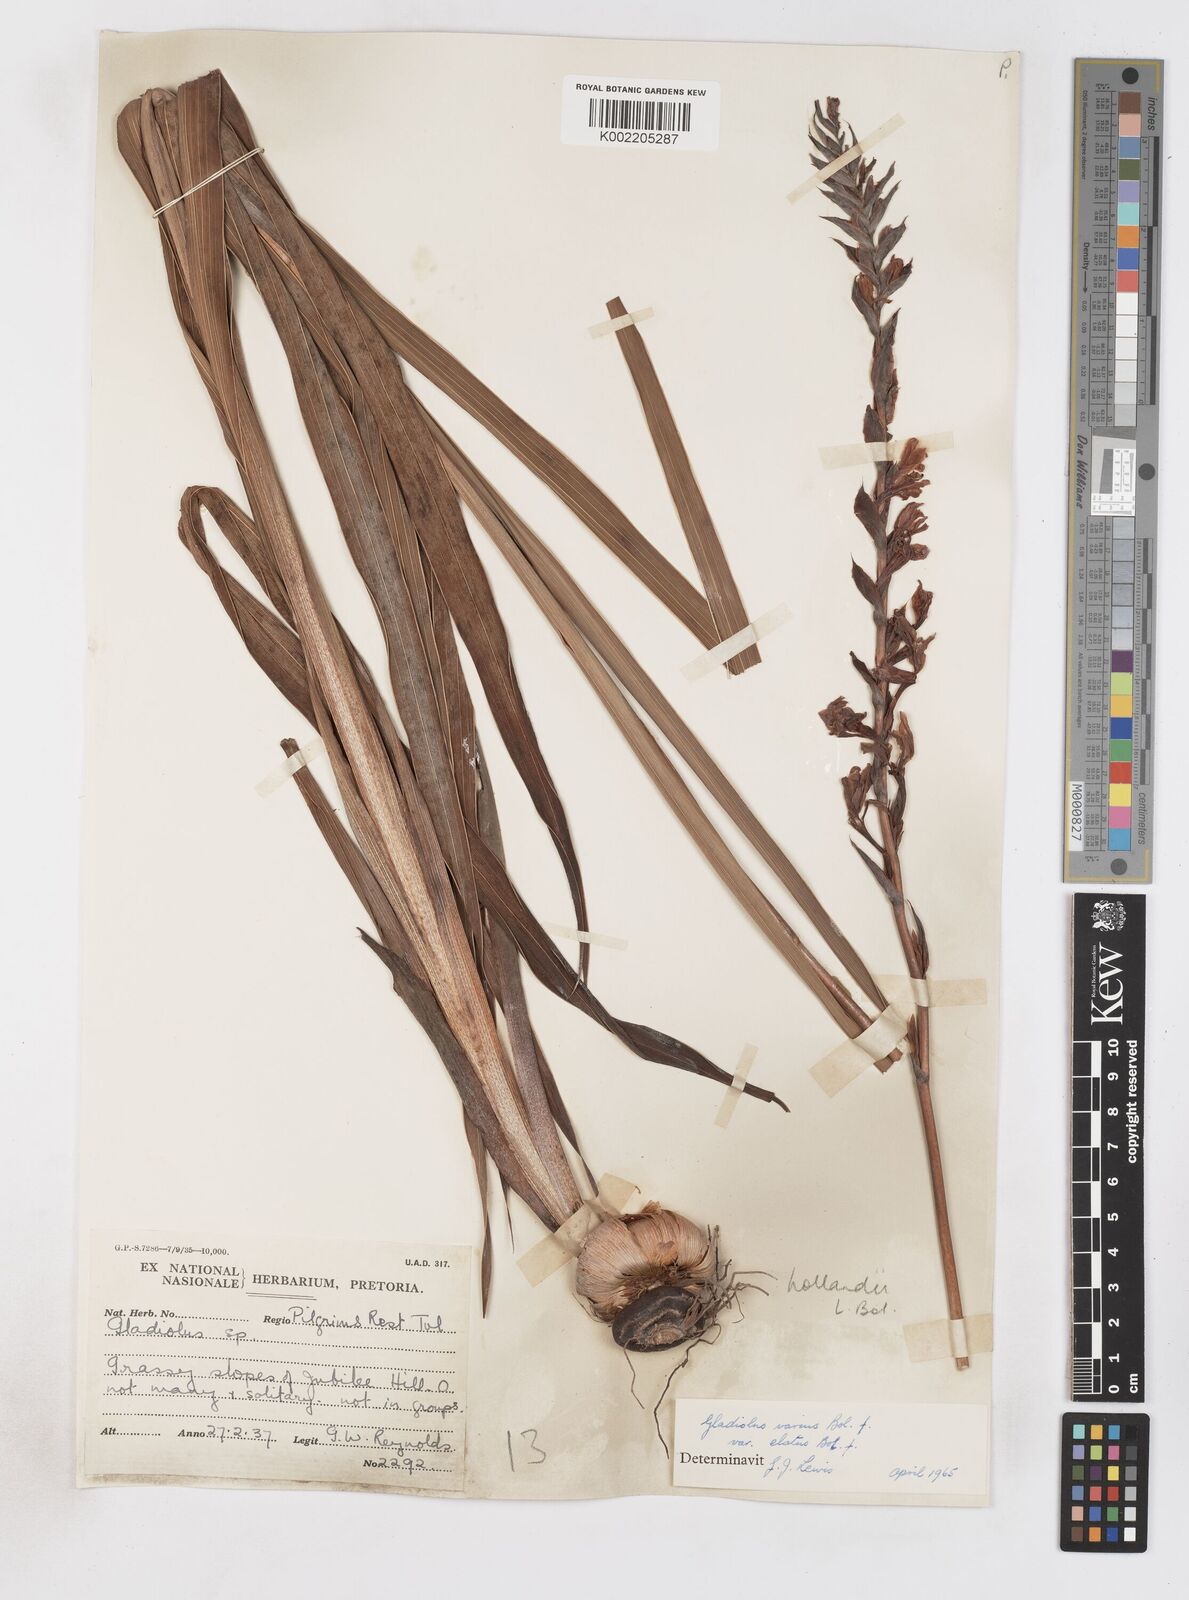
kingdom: Plantae
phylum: Tracheophyta
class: Liliopsida
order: Asparagales
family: Iridaceae
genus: Gladiolus
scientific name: Gladiolus hollandii
